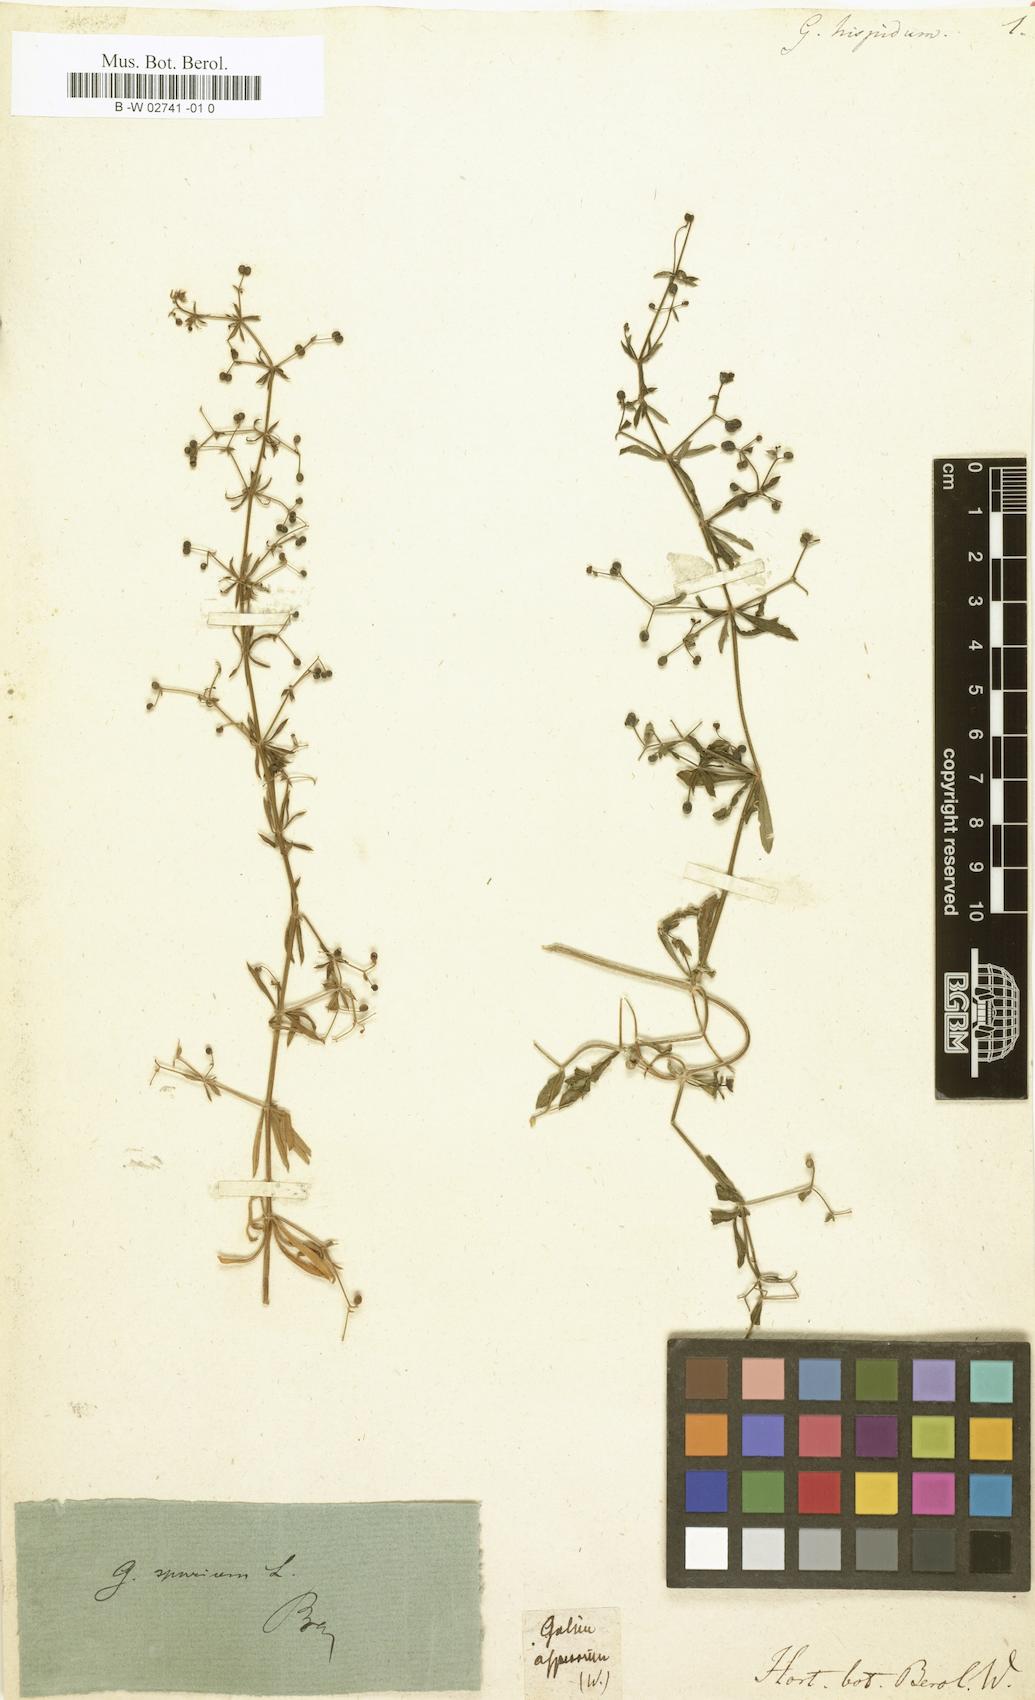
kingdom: Plantae
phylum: Tracheophyta
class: Magnoliopsida
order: Gentianales
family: Rubiaceae
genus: Galium
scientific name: Galium hispidum
